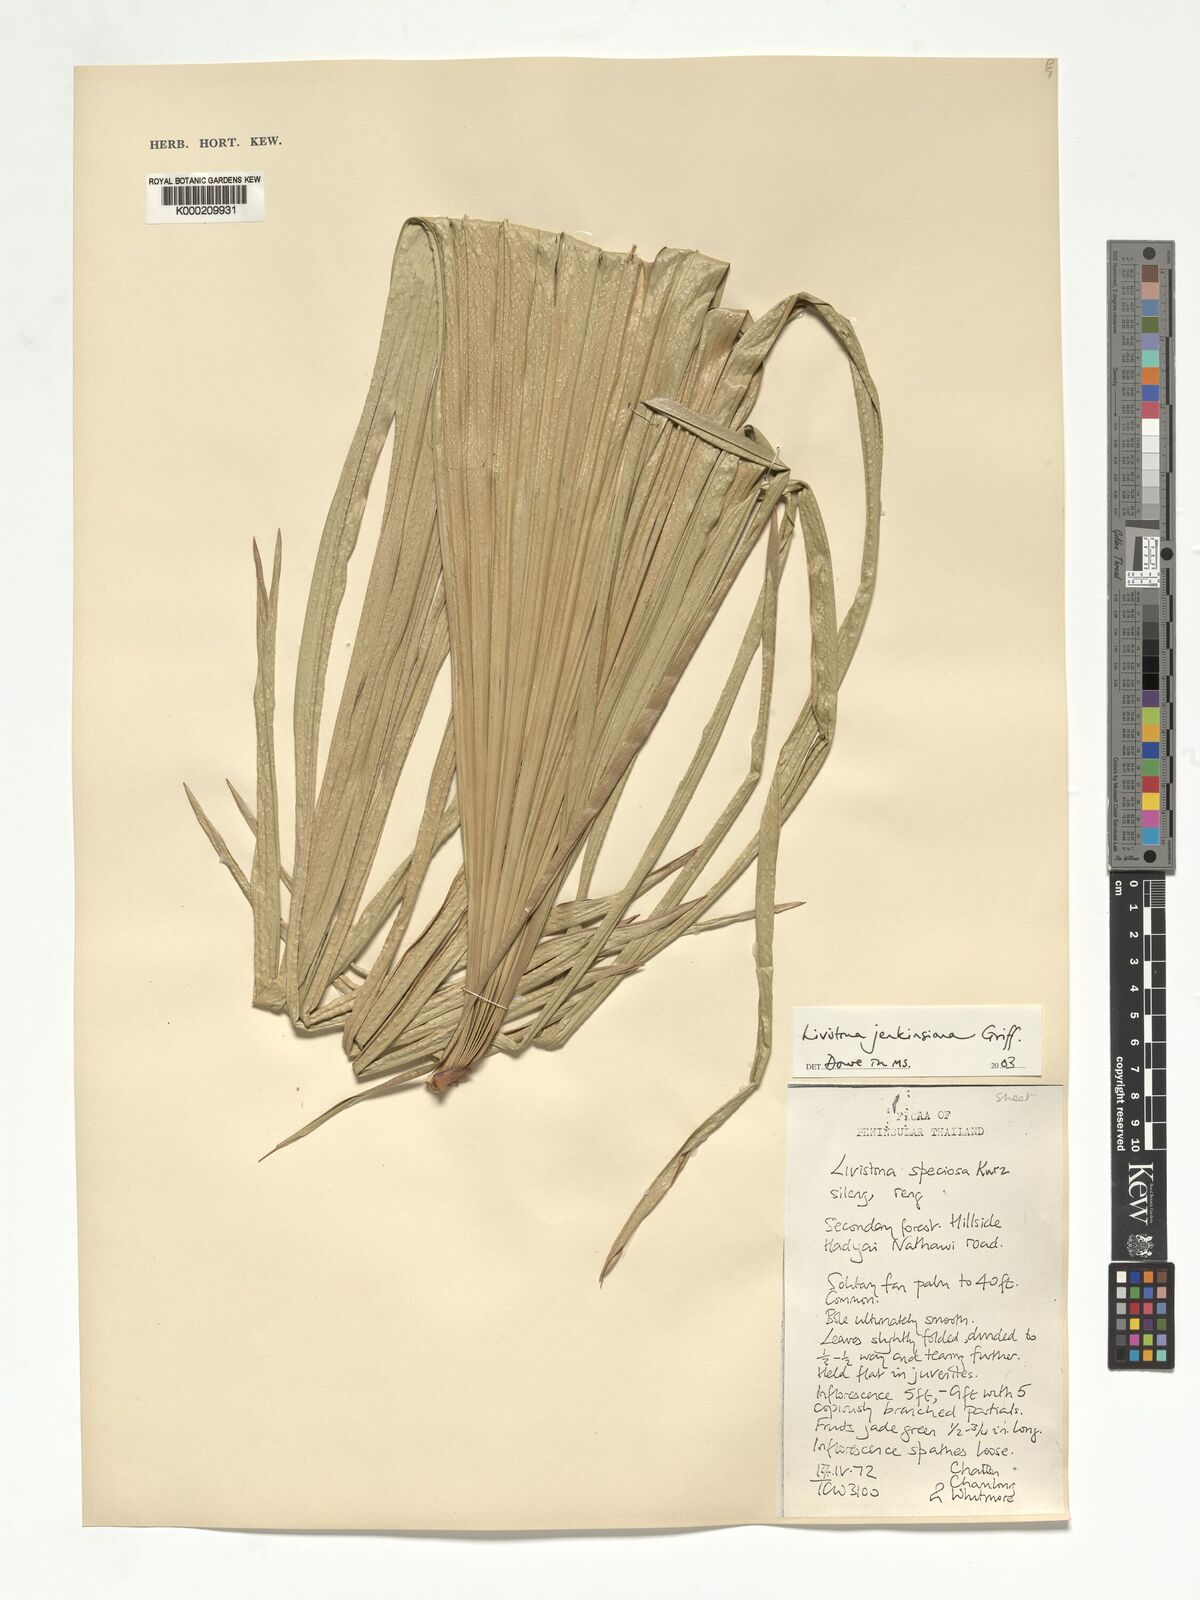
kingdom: Plantae
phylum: Tracheophyta
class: Liliopsida
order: Arecales
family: Arecaceae
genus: Livistona
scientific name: Livistona jenkinsiana
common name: Himalayan fan palm
